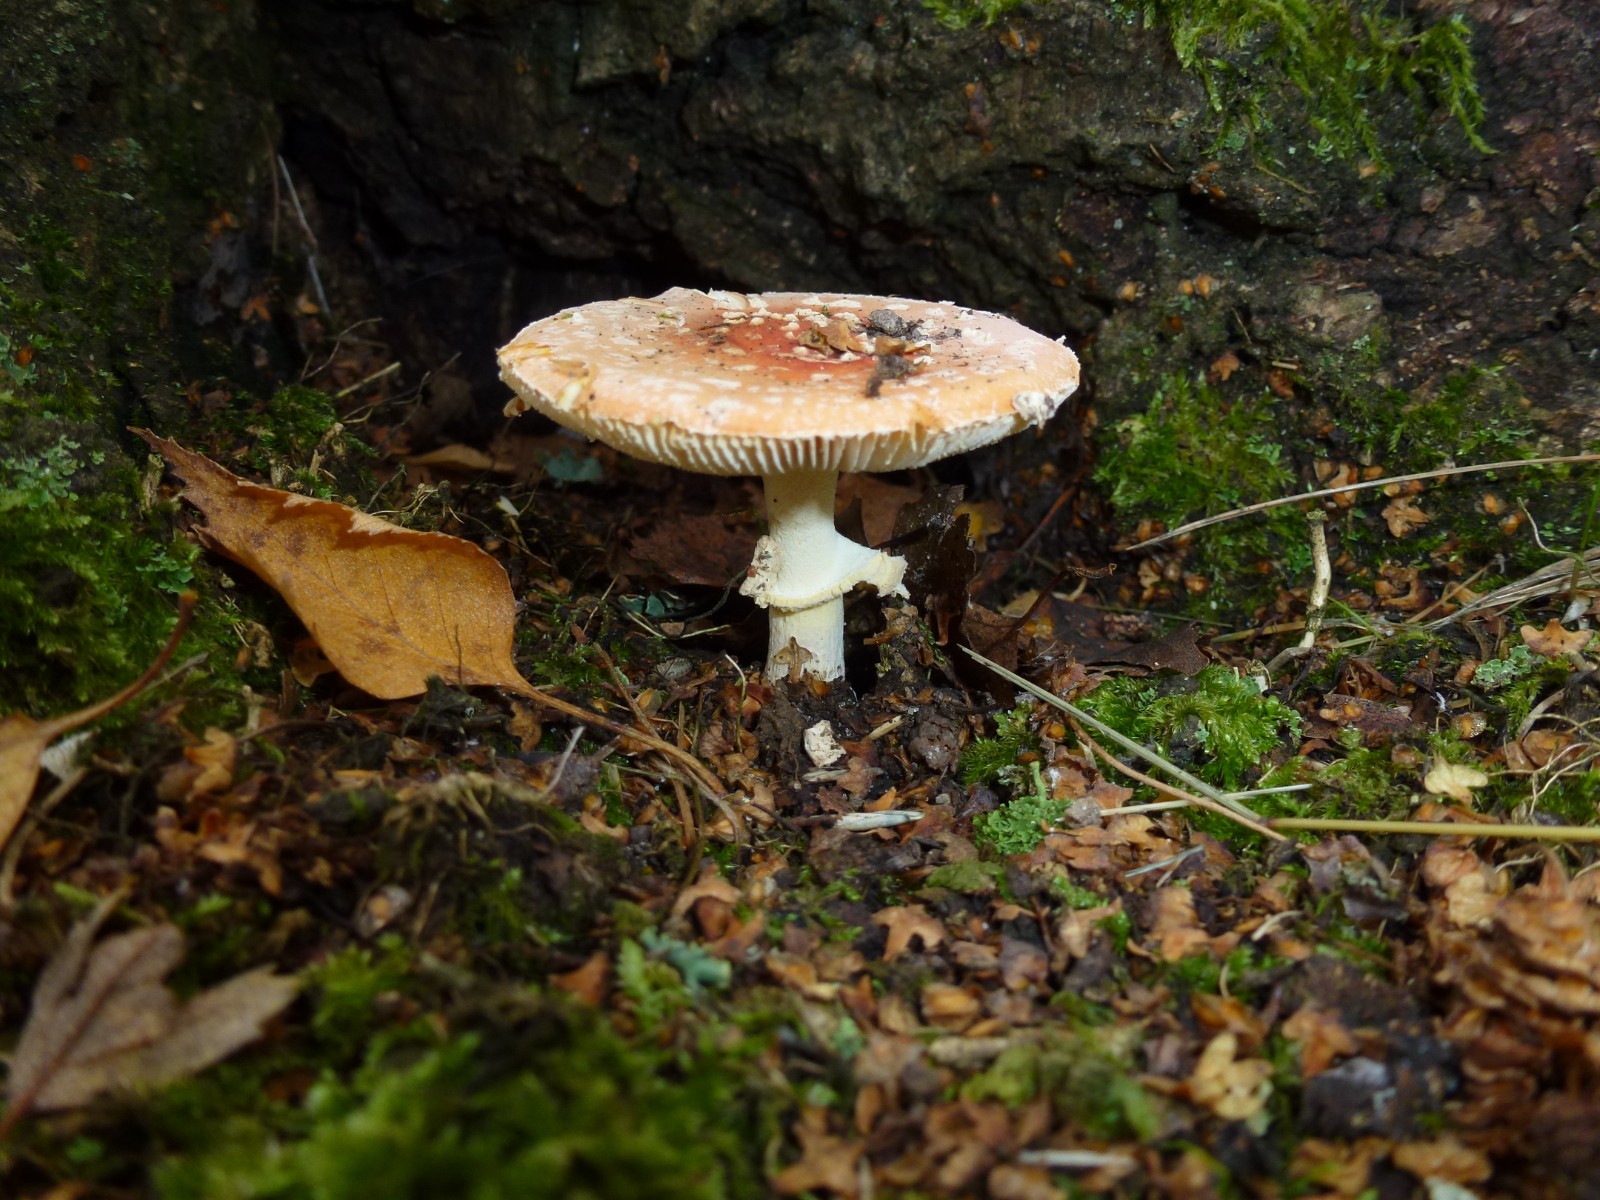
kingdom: Fungi
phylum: Basidiomycota
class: Agaricomycetes
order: Agaricales
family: Amanitaceae
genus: Amanita
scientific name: Amanita muscaria
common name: rød fluesvamp
